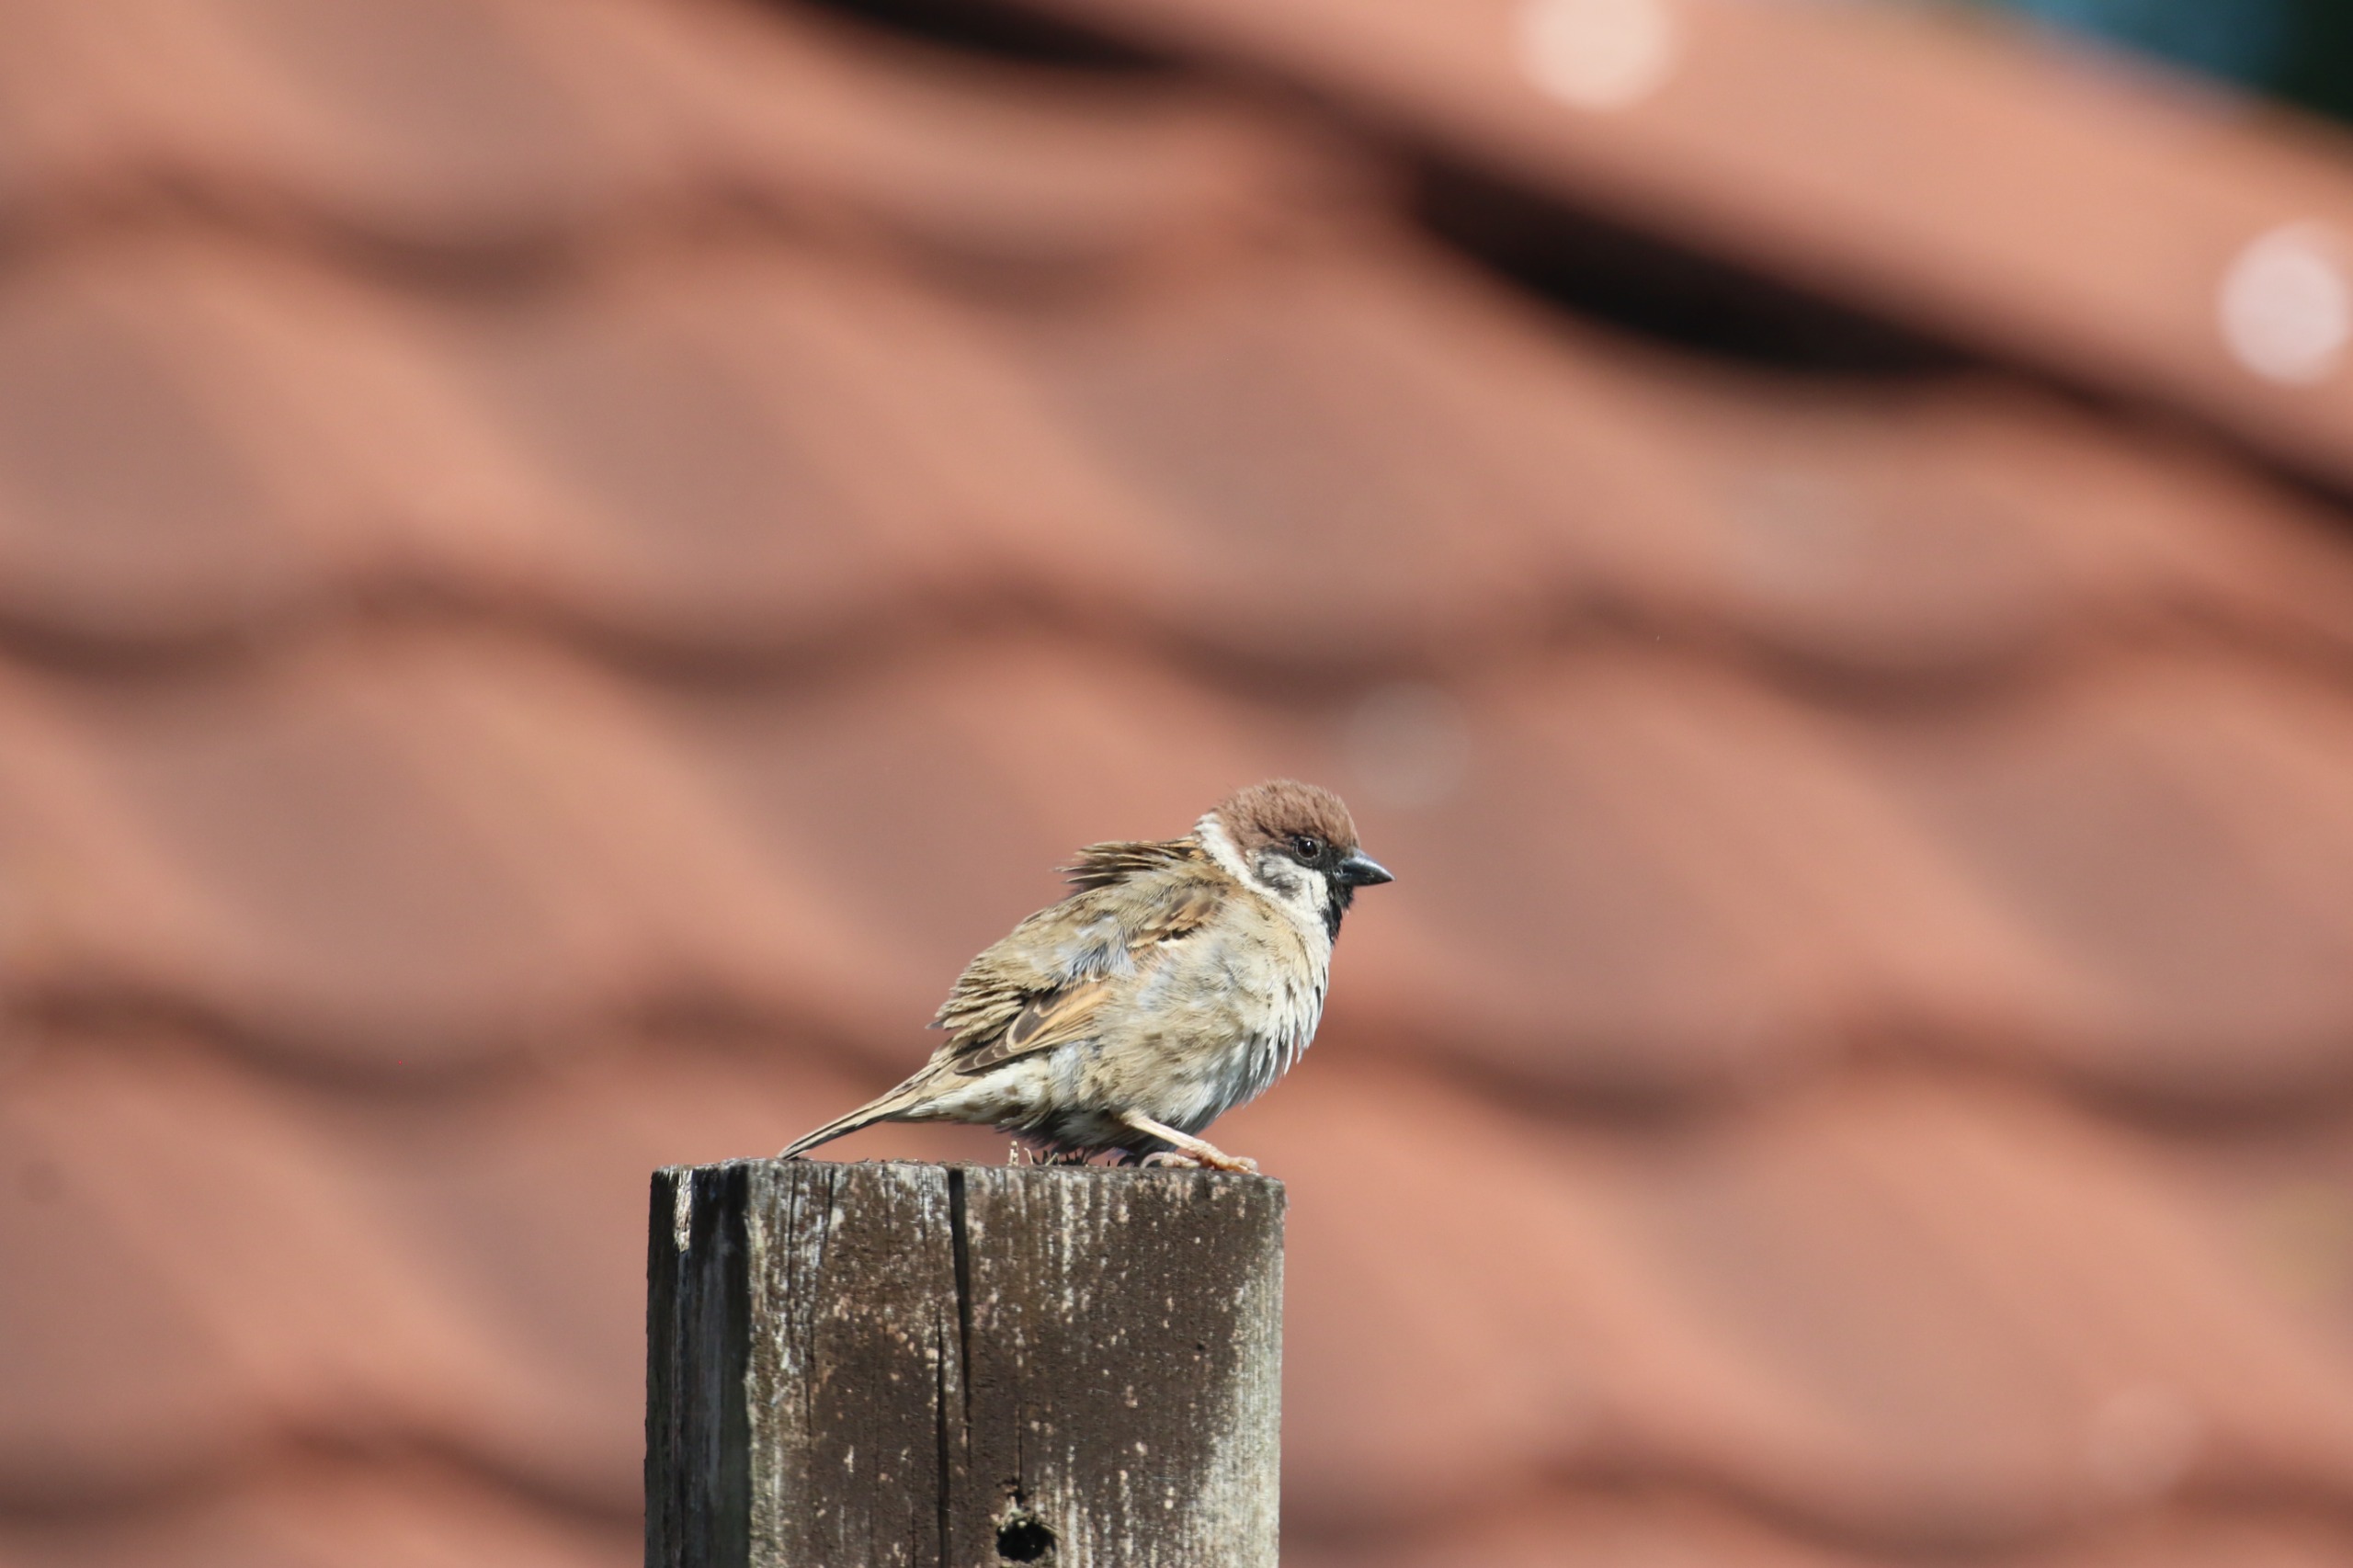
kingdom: Animalia
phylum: Chordata
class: Aves
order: Passeriformes
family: Passeridae
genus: Passer
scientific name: Passer montanus
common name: Skovspurv
